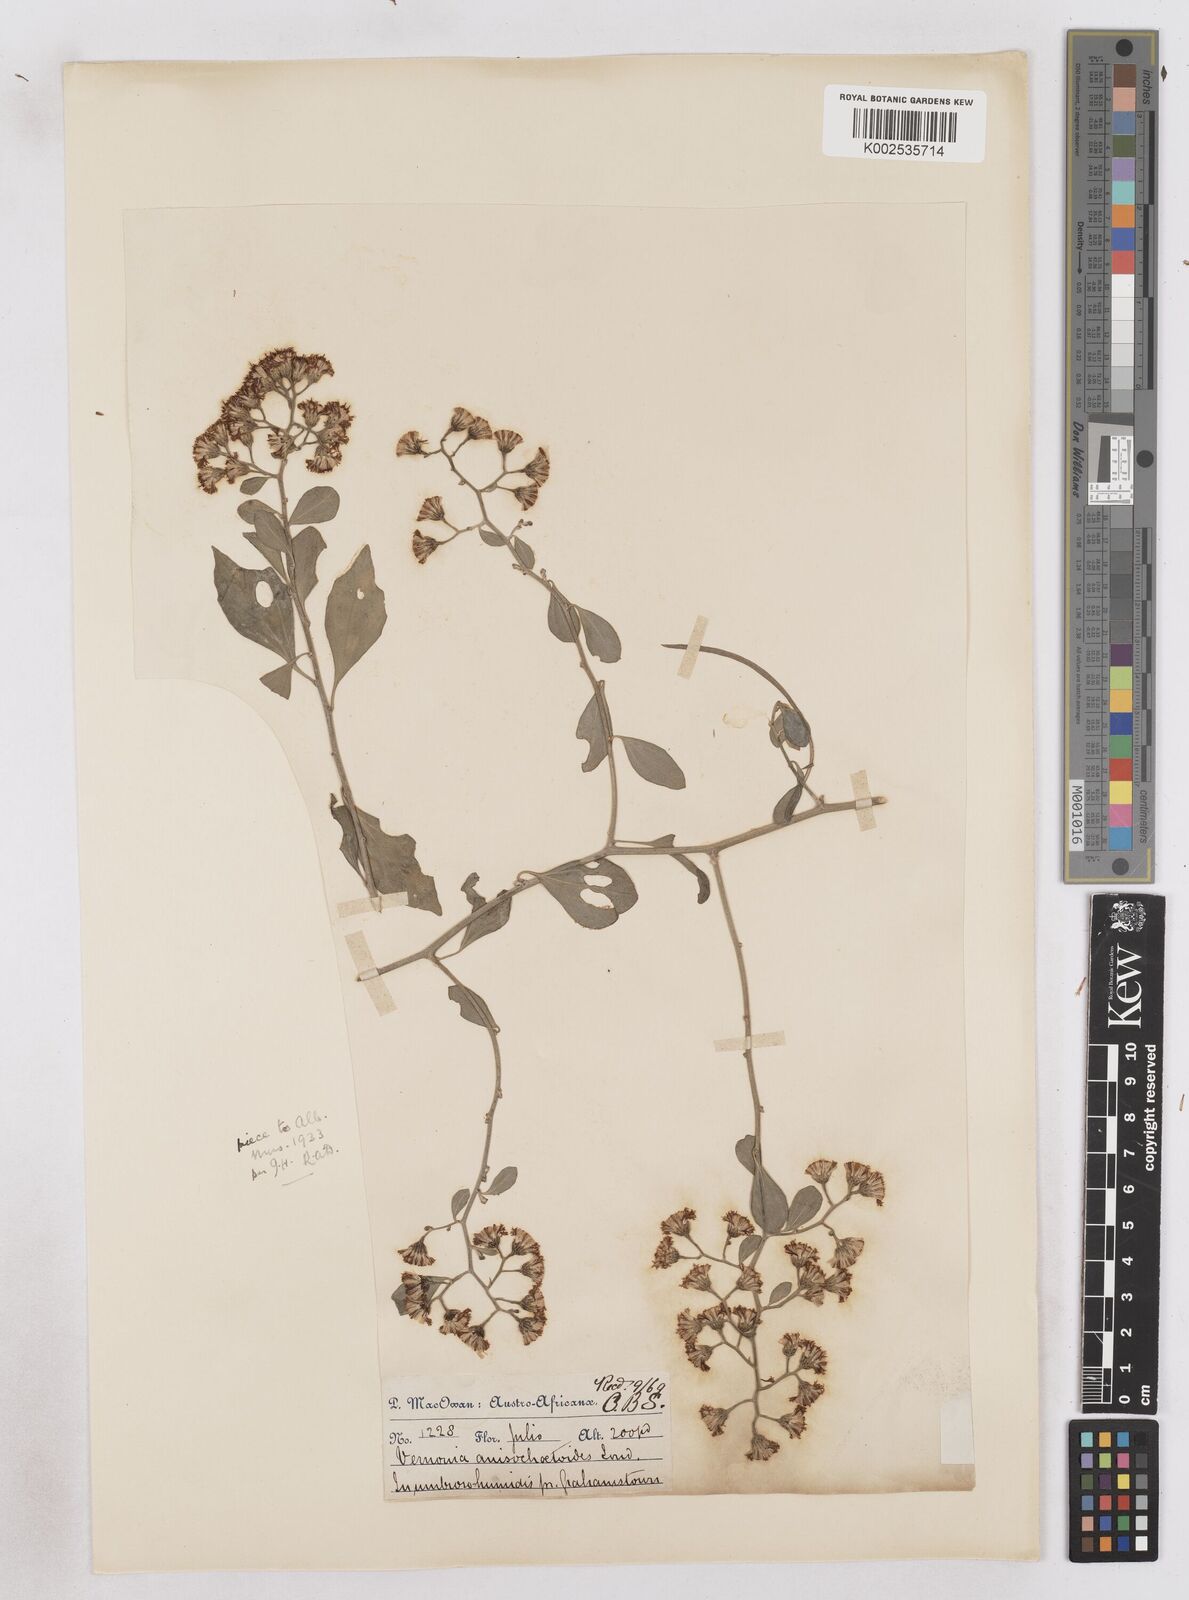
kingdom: Plantae
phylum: Tracheophyta
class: Magnoliopsida
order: Asterales
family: Asteraceae
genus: Distephanus
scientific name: Distephanus anisochaetoides
